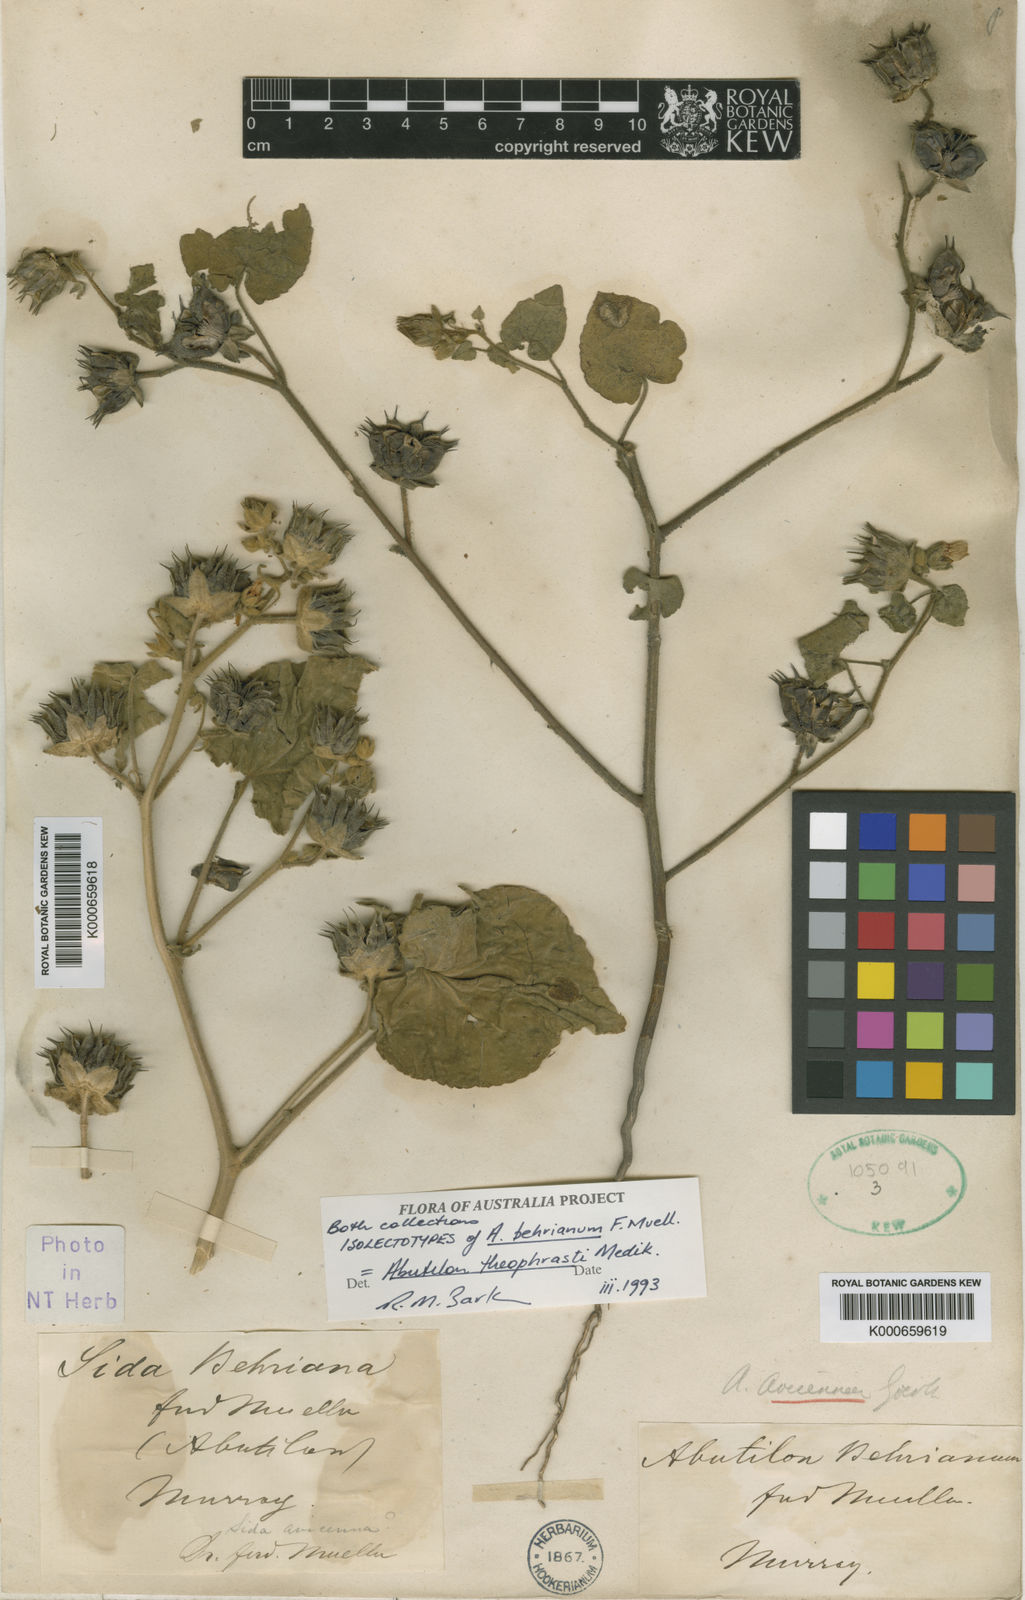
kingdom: Plantae
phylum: Tracheophyta
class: Magnoliopsida
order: Malvales
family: Malvaceae
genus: Abutilon
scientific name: Abutilon theophrasti
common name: Velvetleaf
